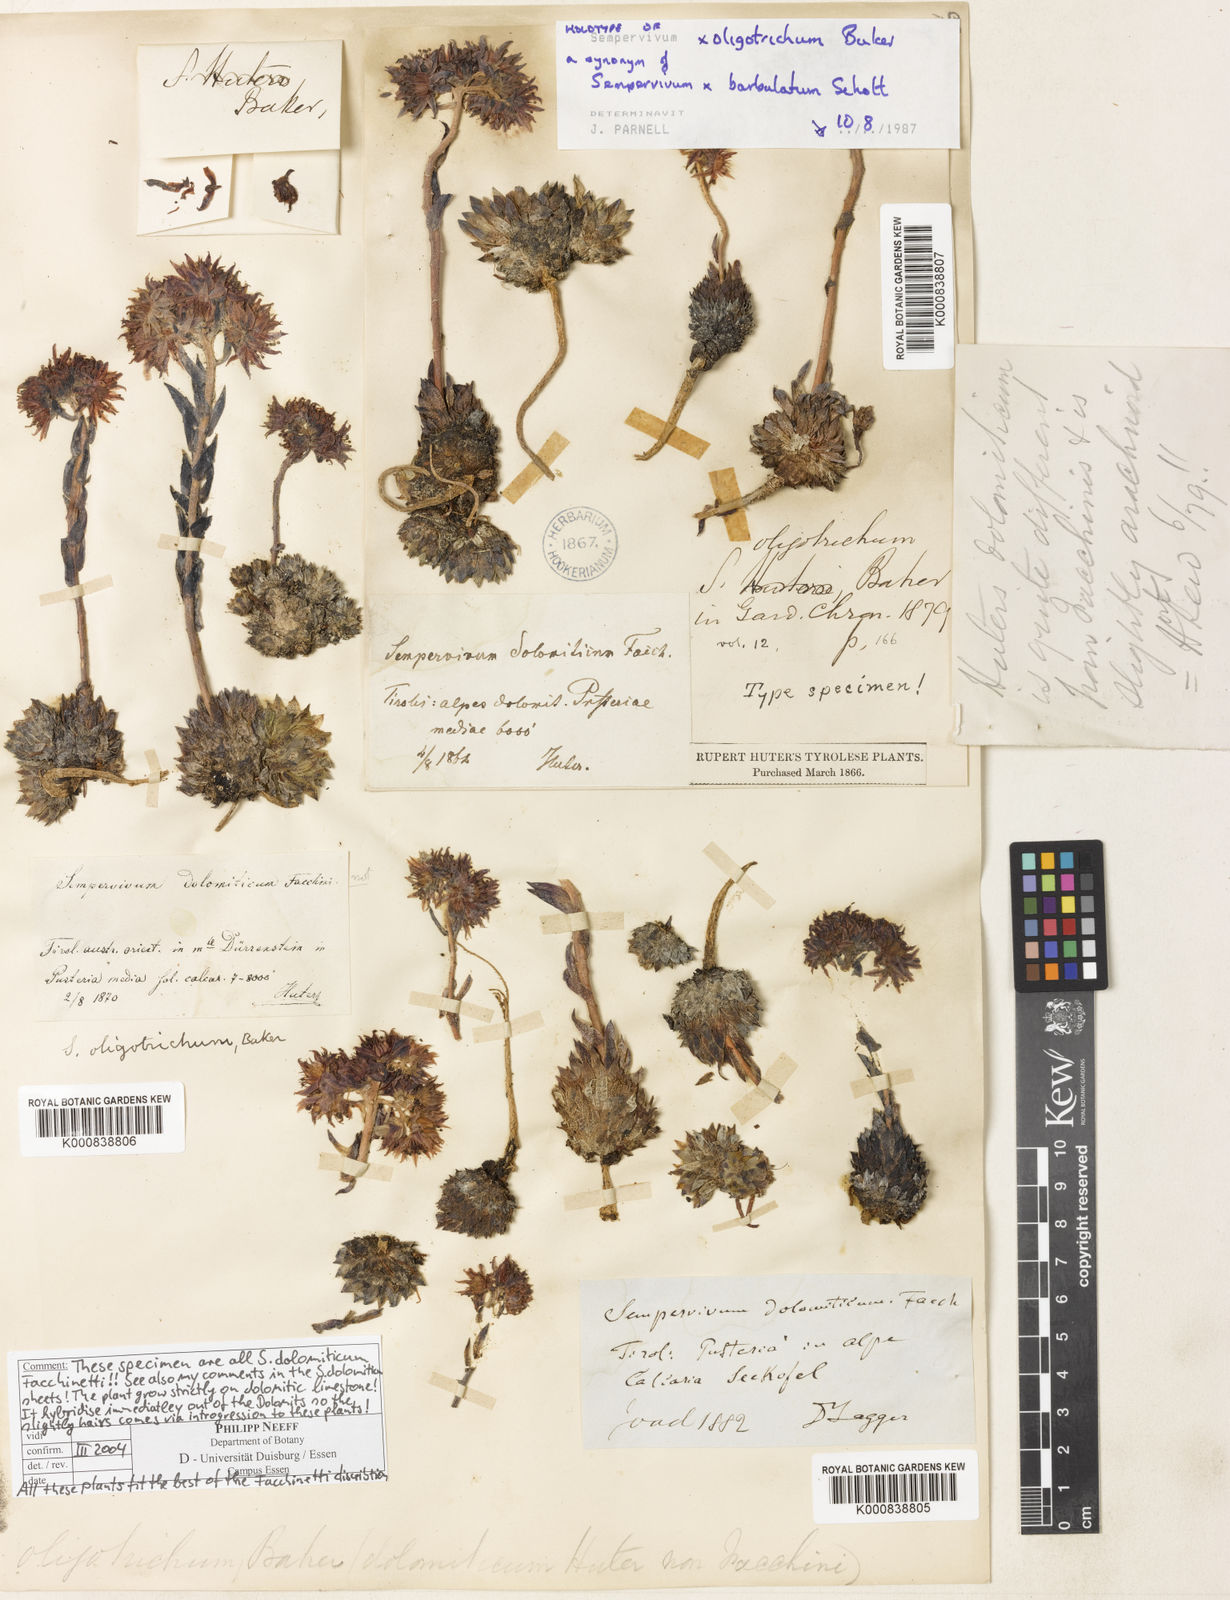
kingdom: Plantae
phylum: Tracheophyta
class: Magnoliopsida
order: Saxifragales
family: Crassulaceae
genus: Sempervivum
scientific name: Sempervivum dolomiticum
